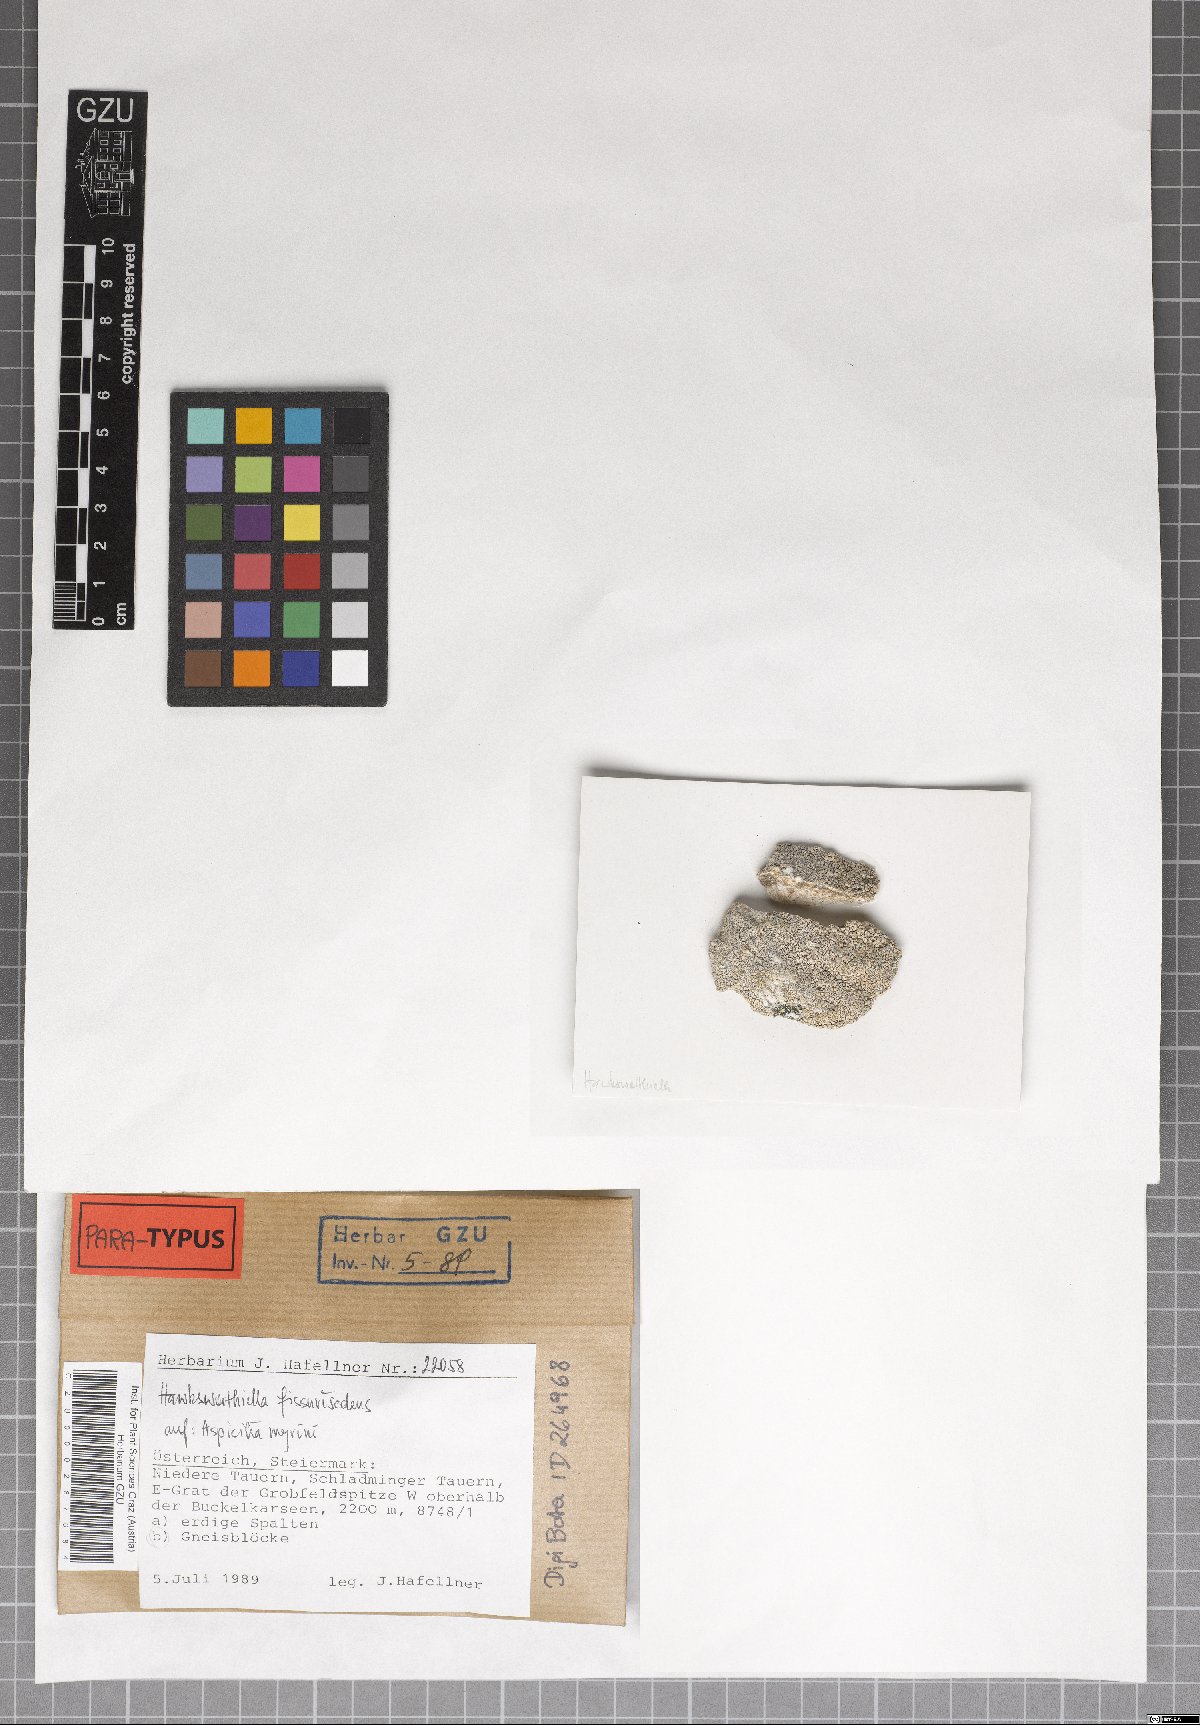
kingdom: Fungi
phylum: Ascomycota
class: Eurotiomycetes
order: Verrucariales
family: Adelococcaceae
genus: Sagediopsis
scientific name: Sagediopsis fissurisedens
